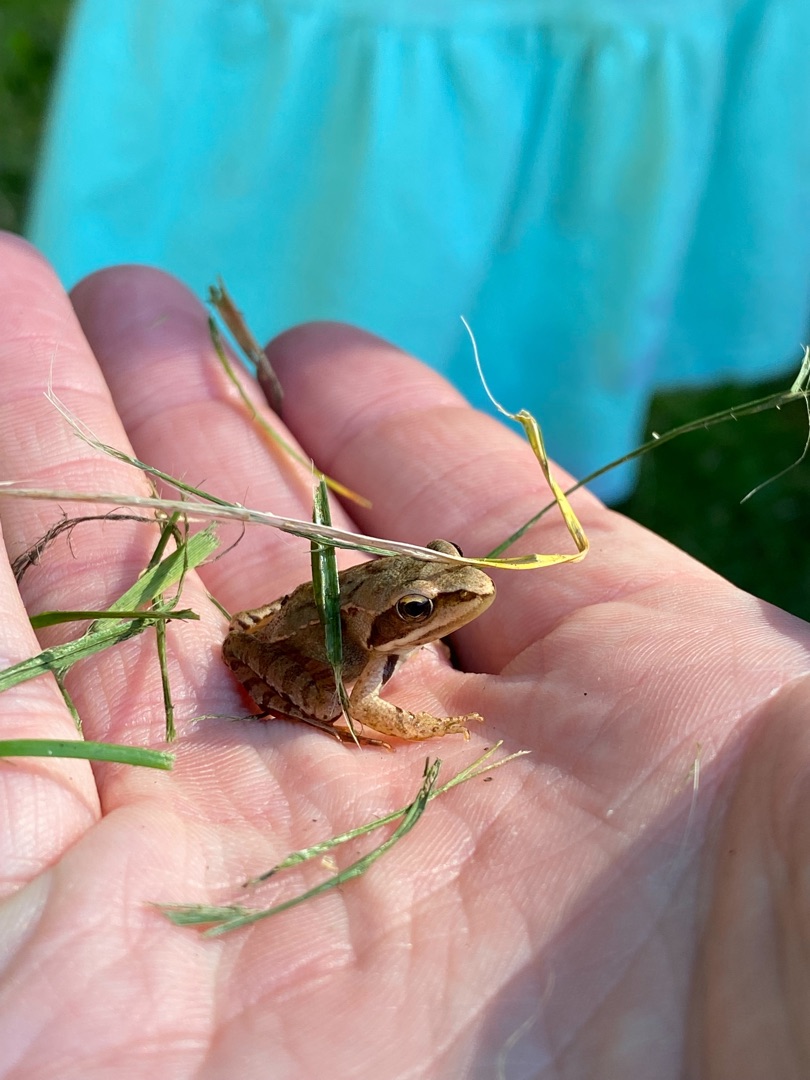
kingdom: Animalia
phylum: Chordata
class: Amphibia
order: Anura
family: Ranidae
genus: Rana
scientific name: Rana temporaria
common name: Butsnudet frø
